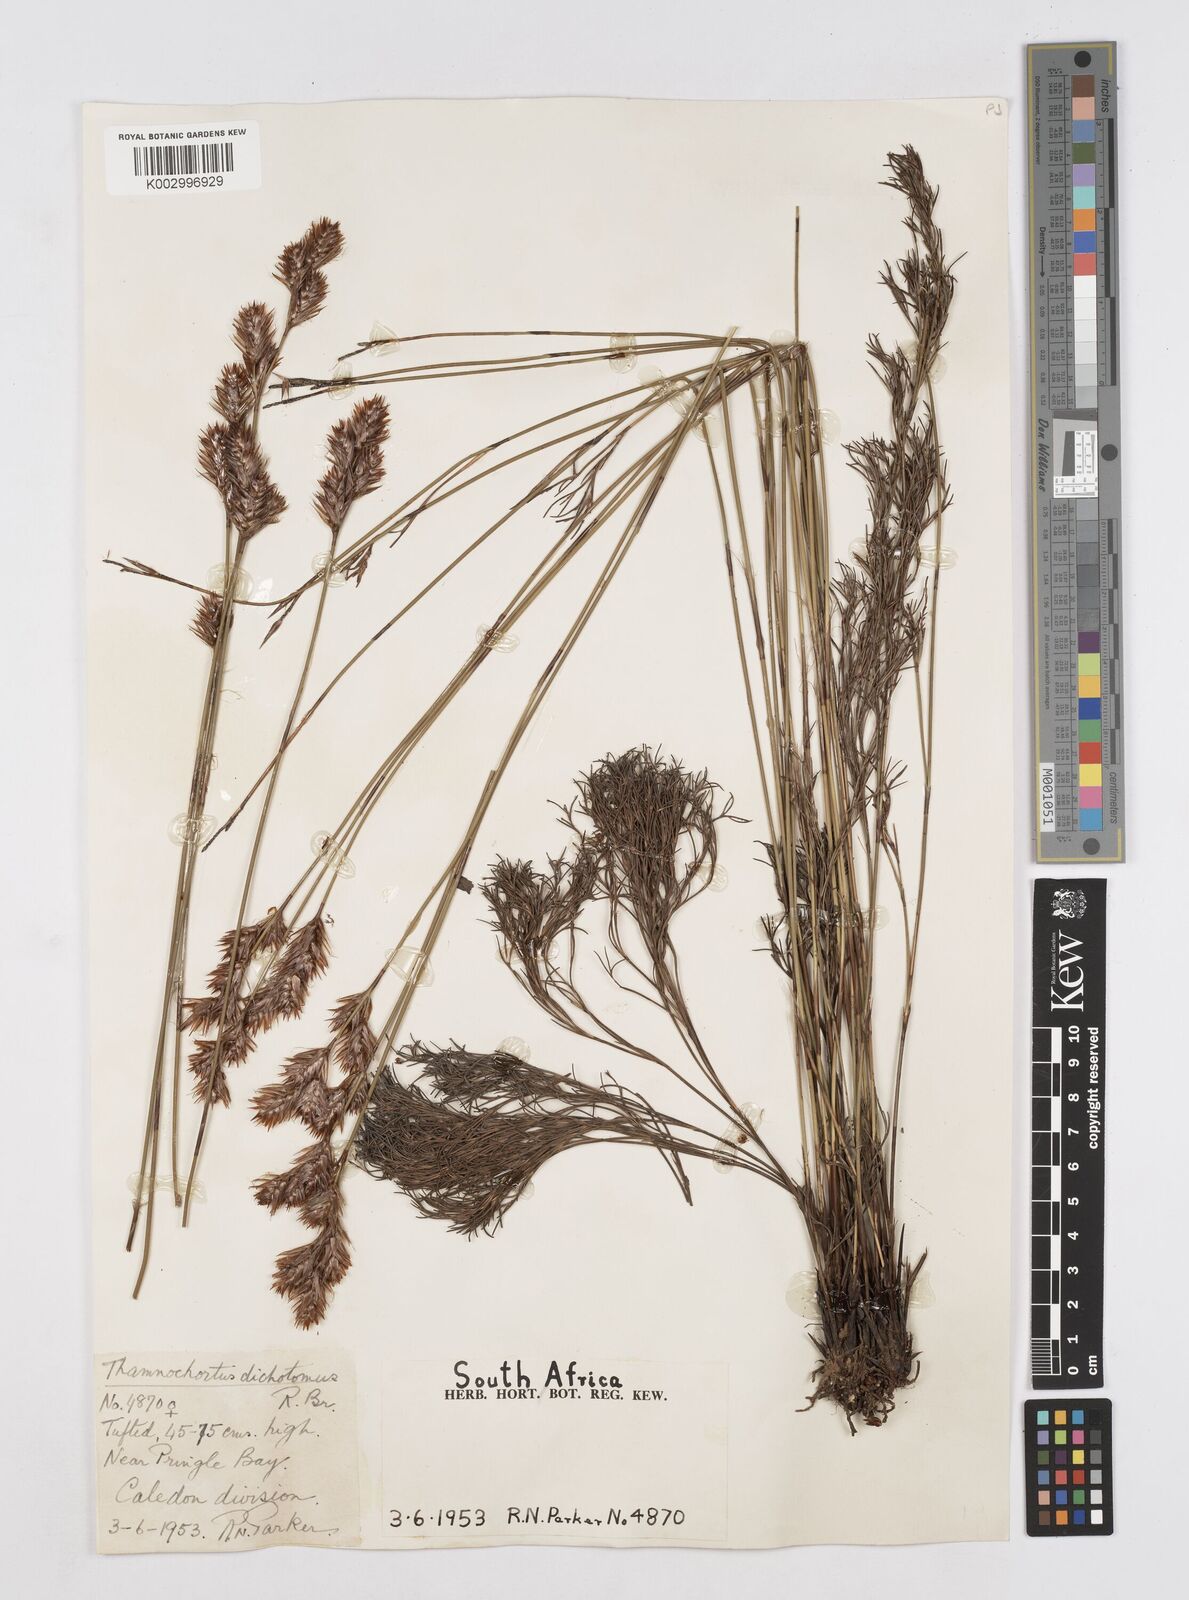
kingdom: Plantae
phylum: Tracheophyta
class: Liliopsida
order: Poales
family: Restionaceae
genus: Thamnochortus
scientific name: Thamnochortus lucens
